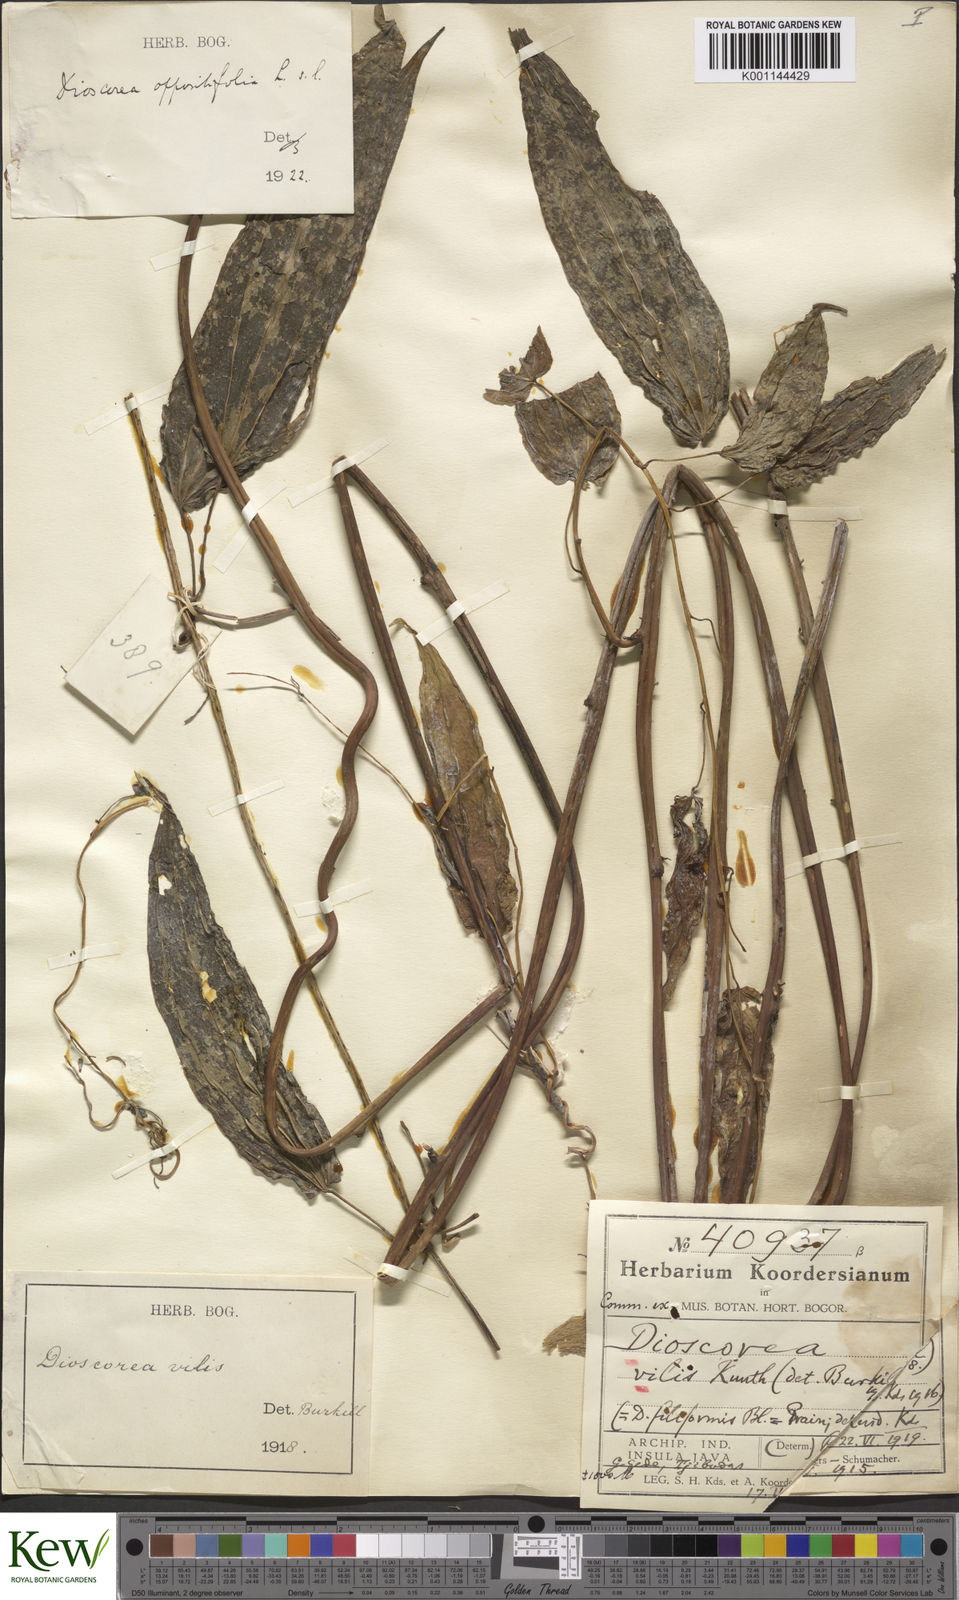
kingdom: Plantae
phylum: Tracheophyta
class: Liliopsida
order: Dioscoreales
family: Dioscoreaceae
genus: Dioscorea
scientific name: Dioscorea filiformis
